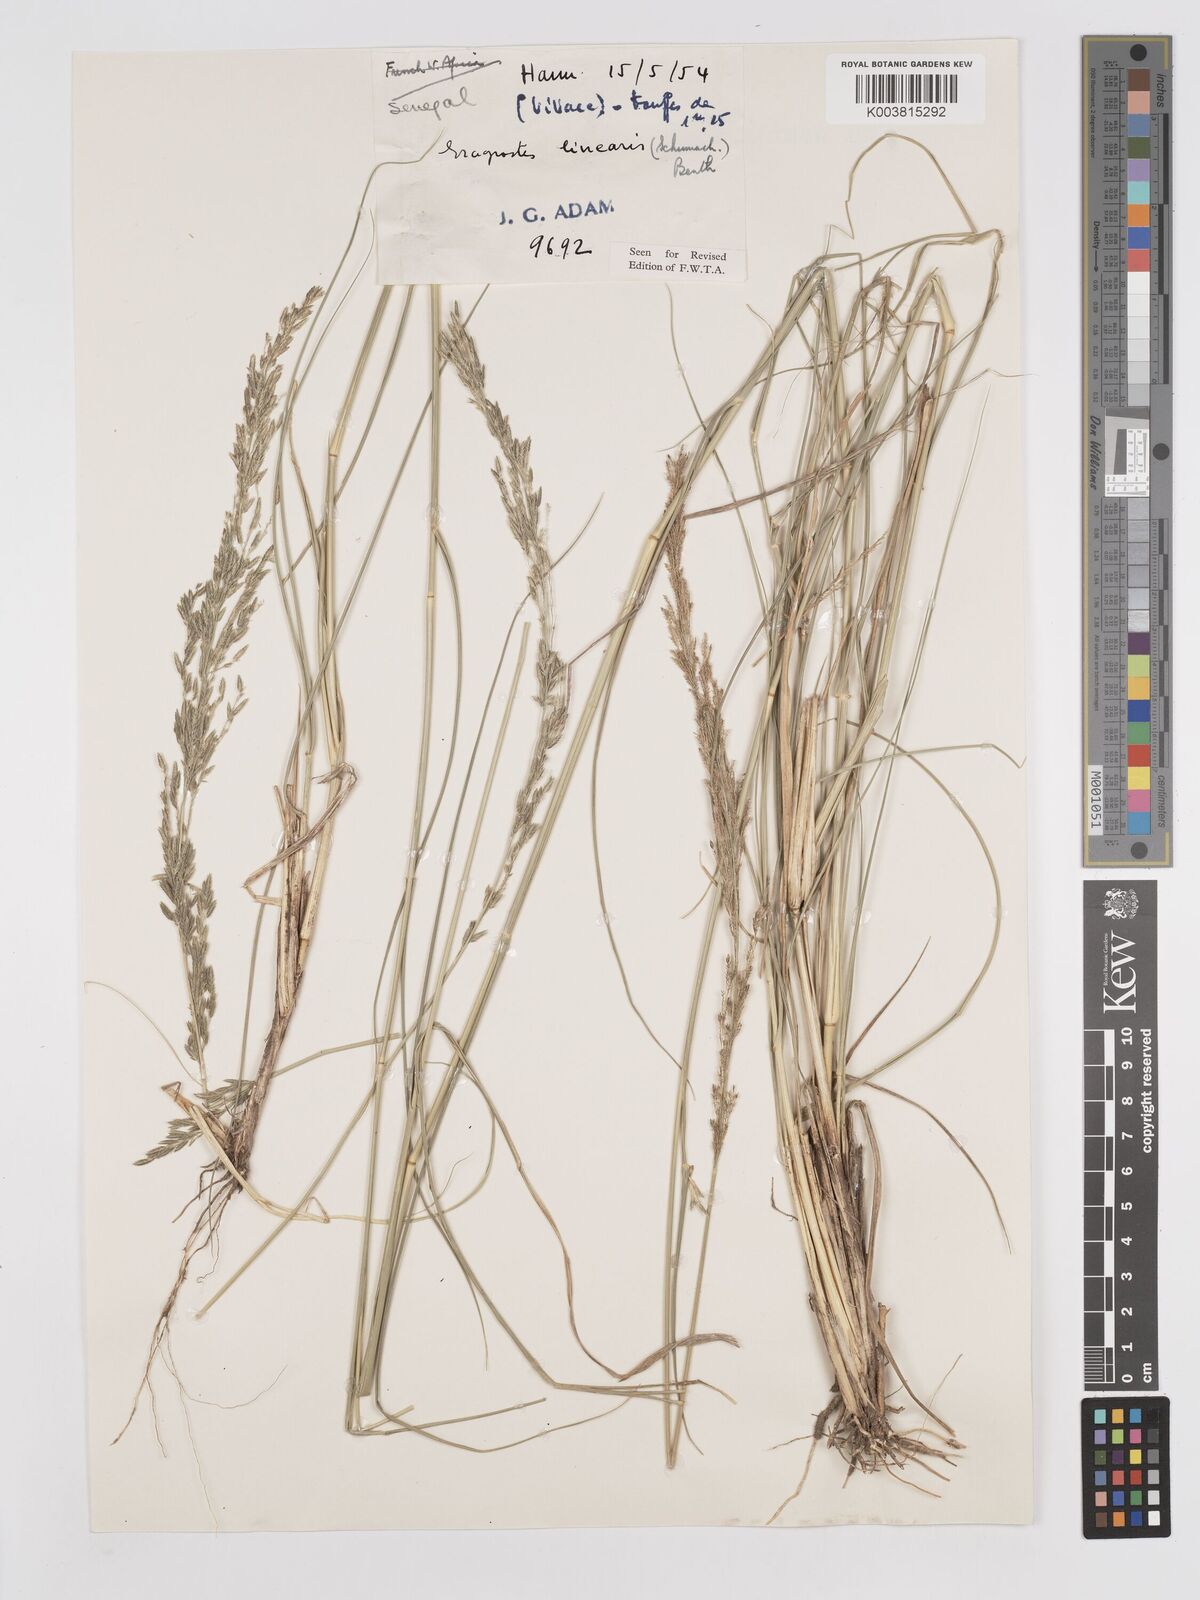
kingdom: Plantae
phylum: Tracheophyta
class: Liliopsida
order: Poales
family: Poaceae
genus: Eragrostis
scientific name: Eragrostis prolifera
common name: Dominican lovegrass
